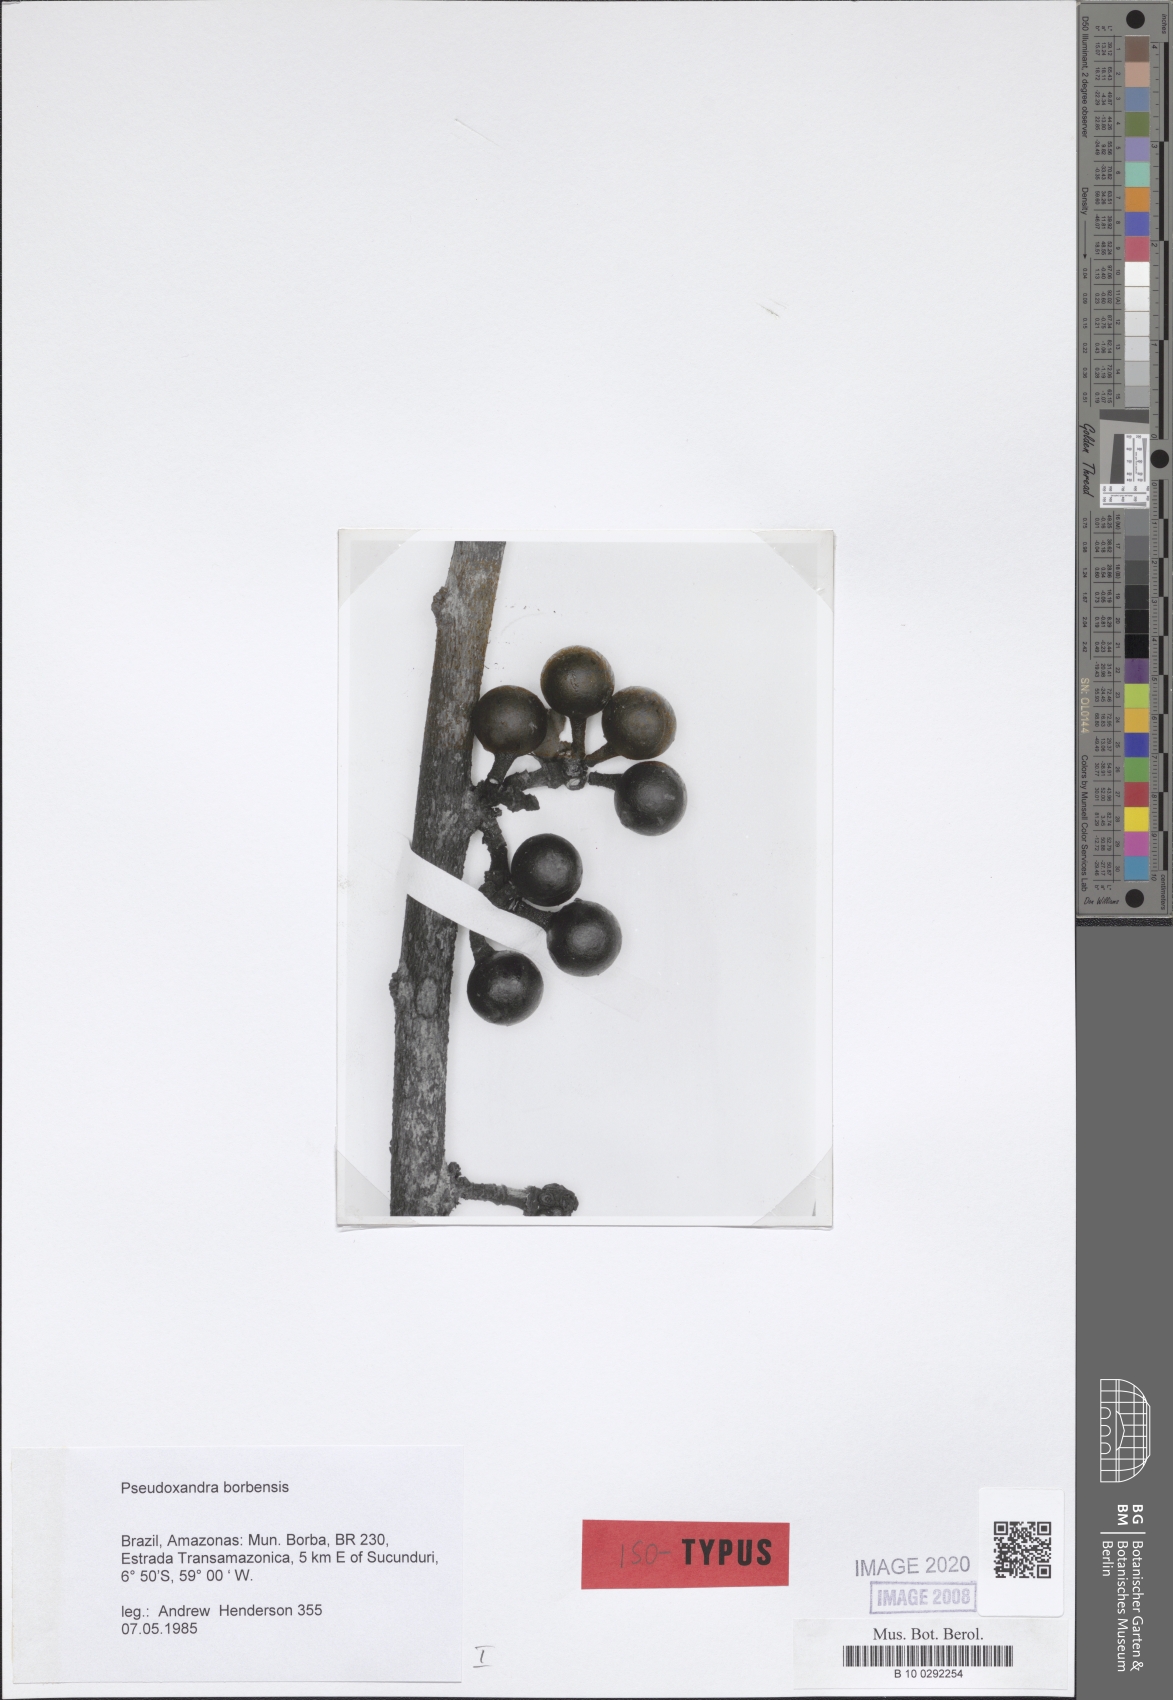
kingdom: Plantae
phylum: Tracheophyta
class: Magnoliopsida
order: Magnoliales
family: Annonaceae
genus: Pseudoxandra
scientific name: Pseudoxandra borbensis
